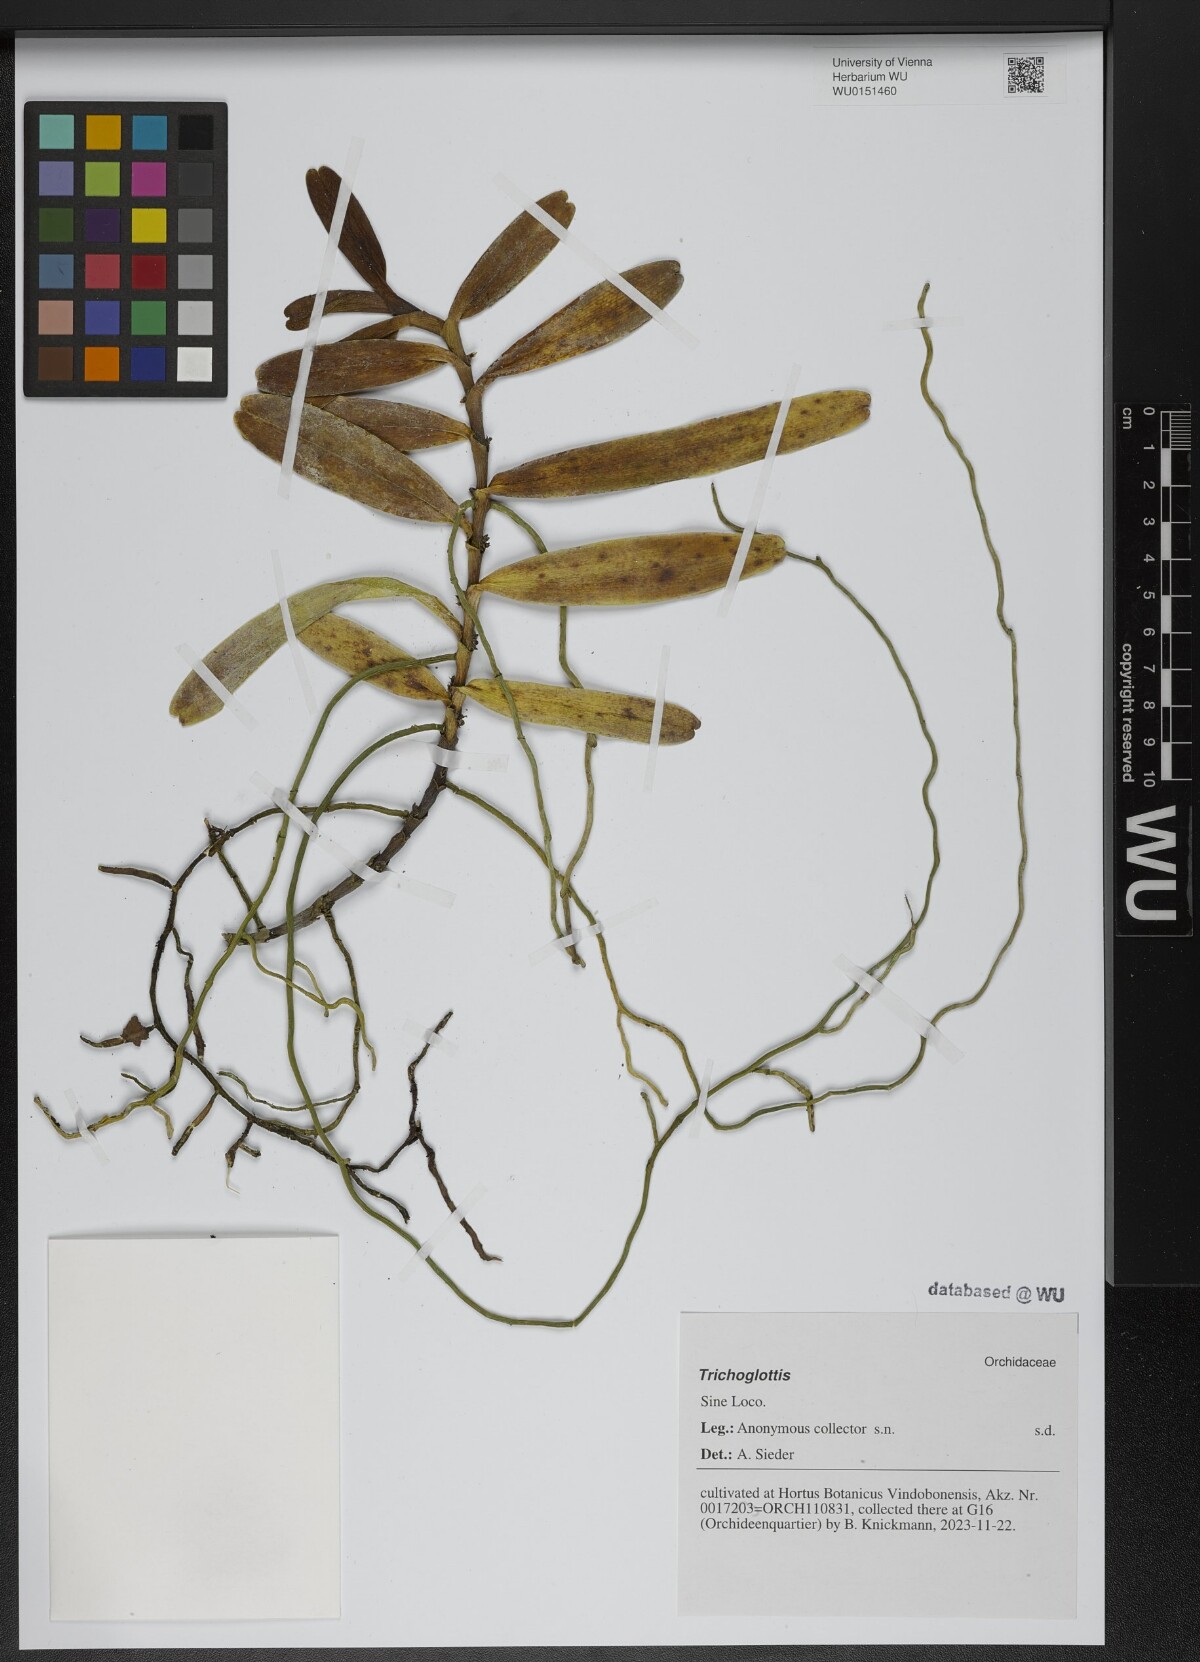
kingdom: Plantae
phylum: Tracheophyta
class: Liliopsida
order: Asparagales
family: Orchidaceae
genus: Trichoglottis
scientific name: Trichoglottis
